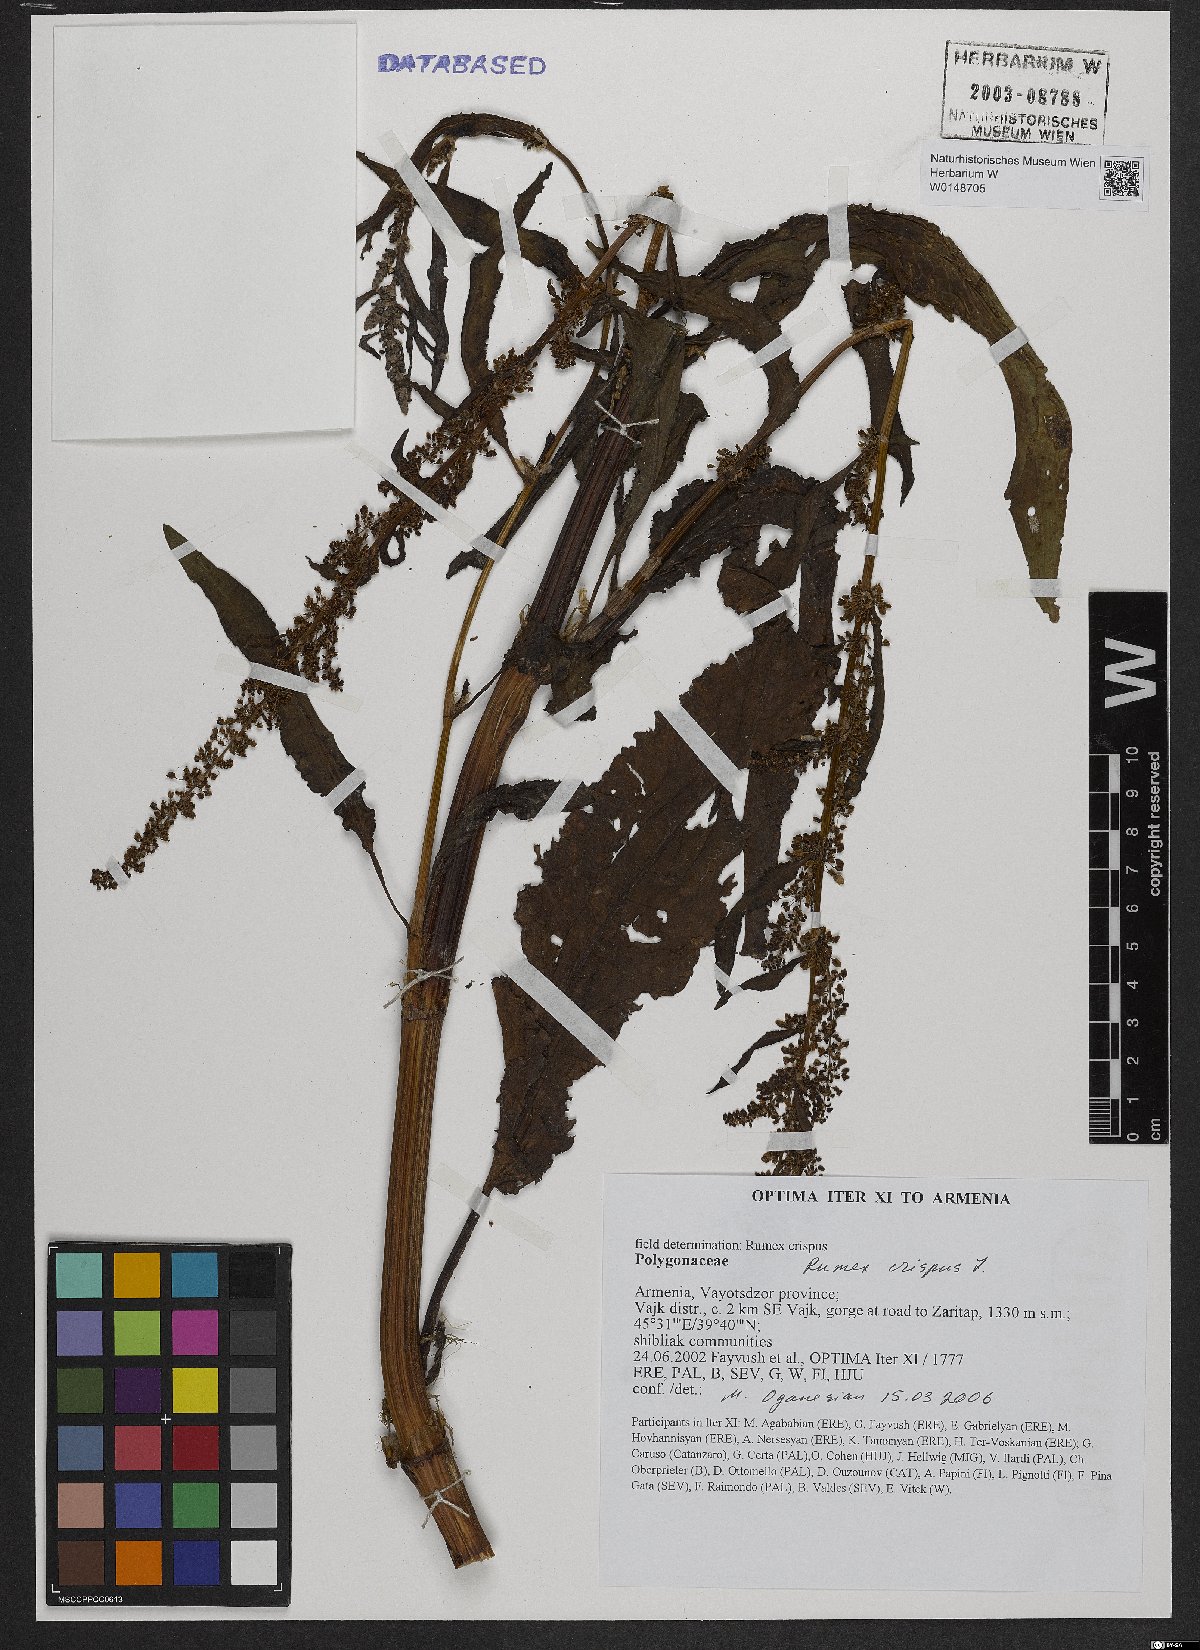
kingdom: Plantae
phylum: Tracheophyta
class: Magnoliopsida
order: Caryophyllales
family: Polygonaceae
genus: Rumex
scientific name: Rumex crispus
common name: Curled dock
